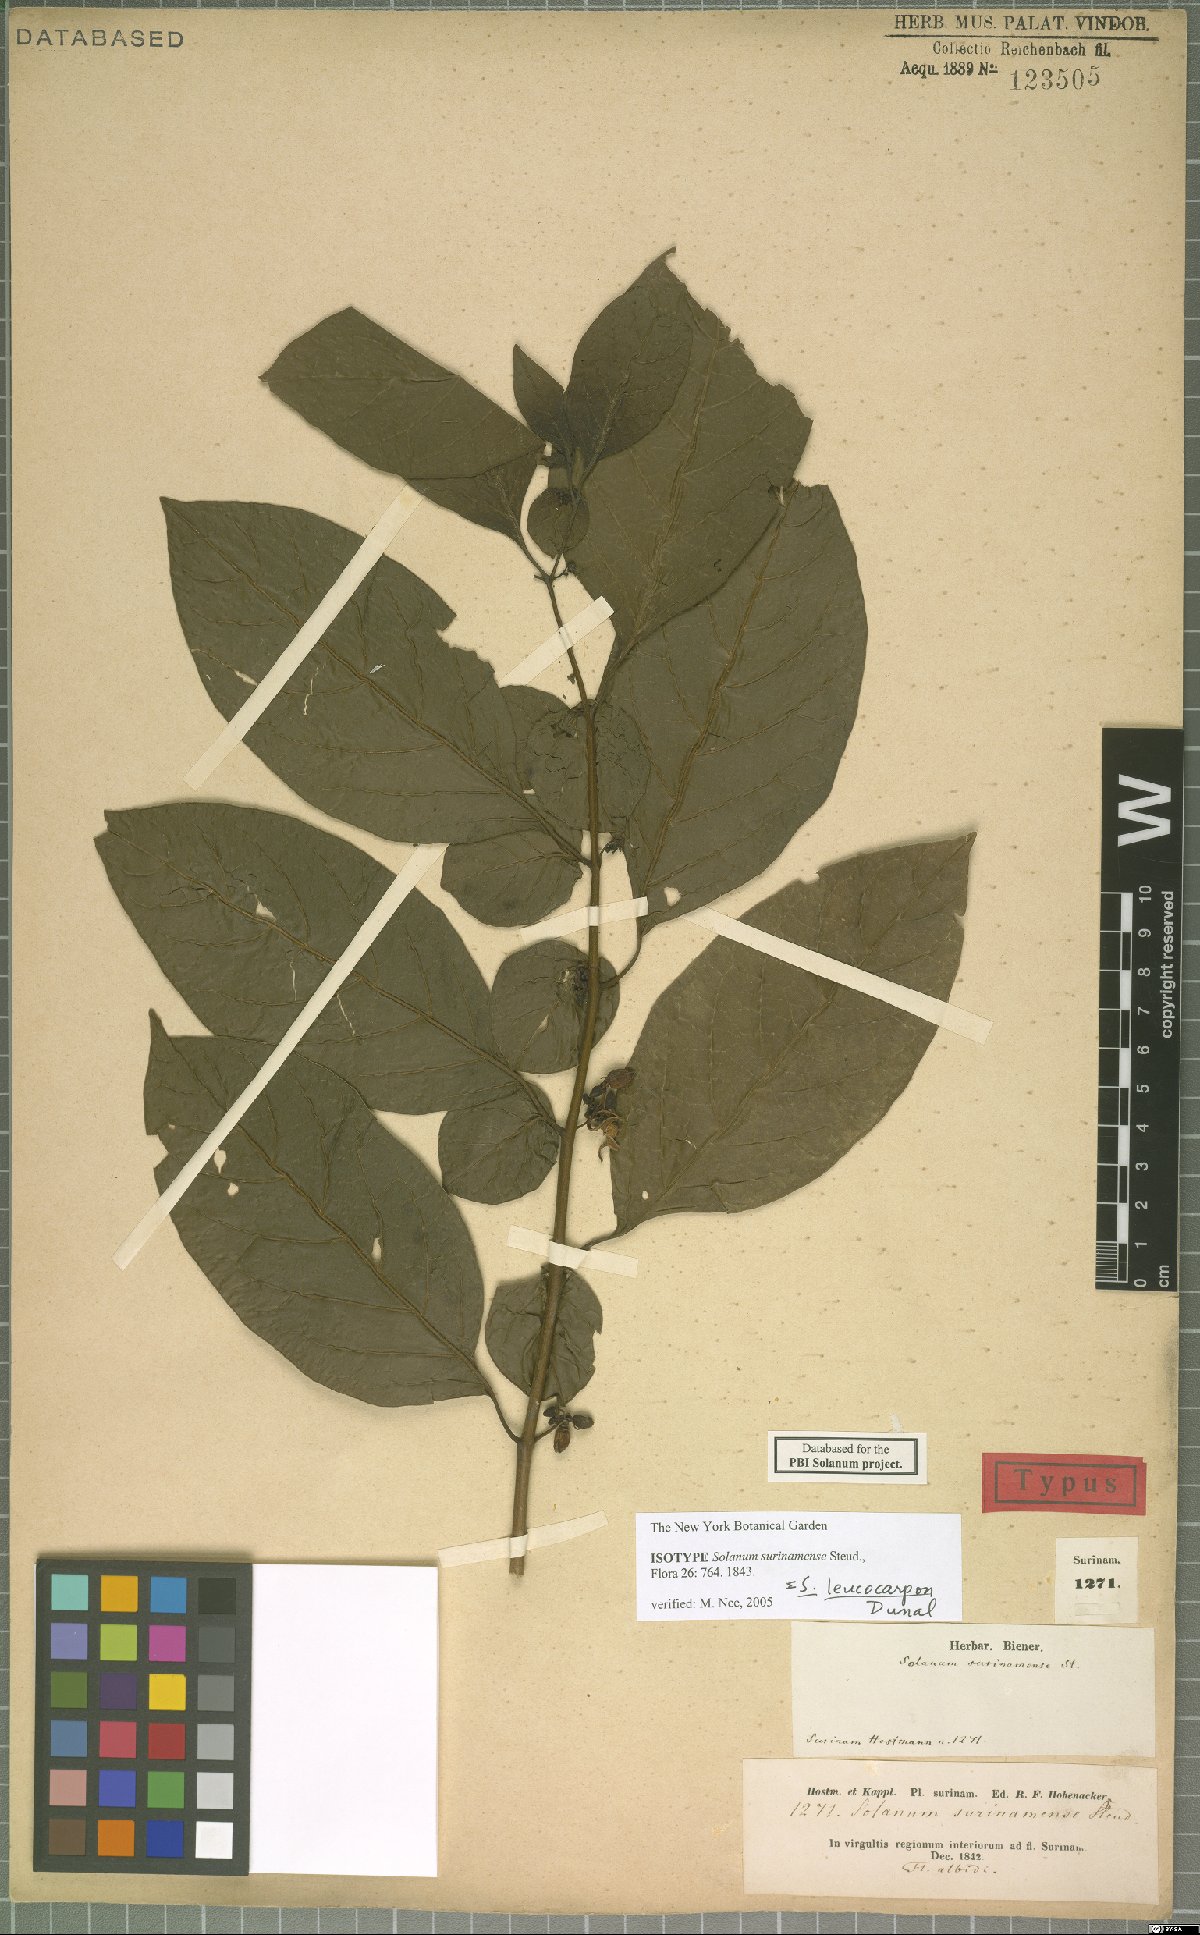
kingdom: Plantae
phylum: Tracheophyta
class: Magnoliopsida
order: Solanales
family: Solanaceae
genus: Solanum
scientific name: Solanum leucocarpon
